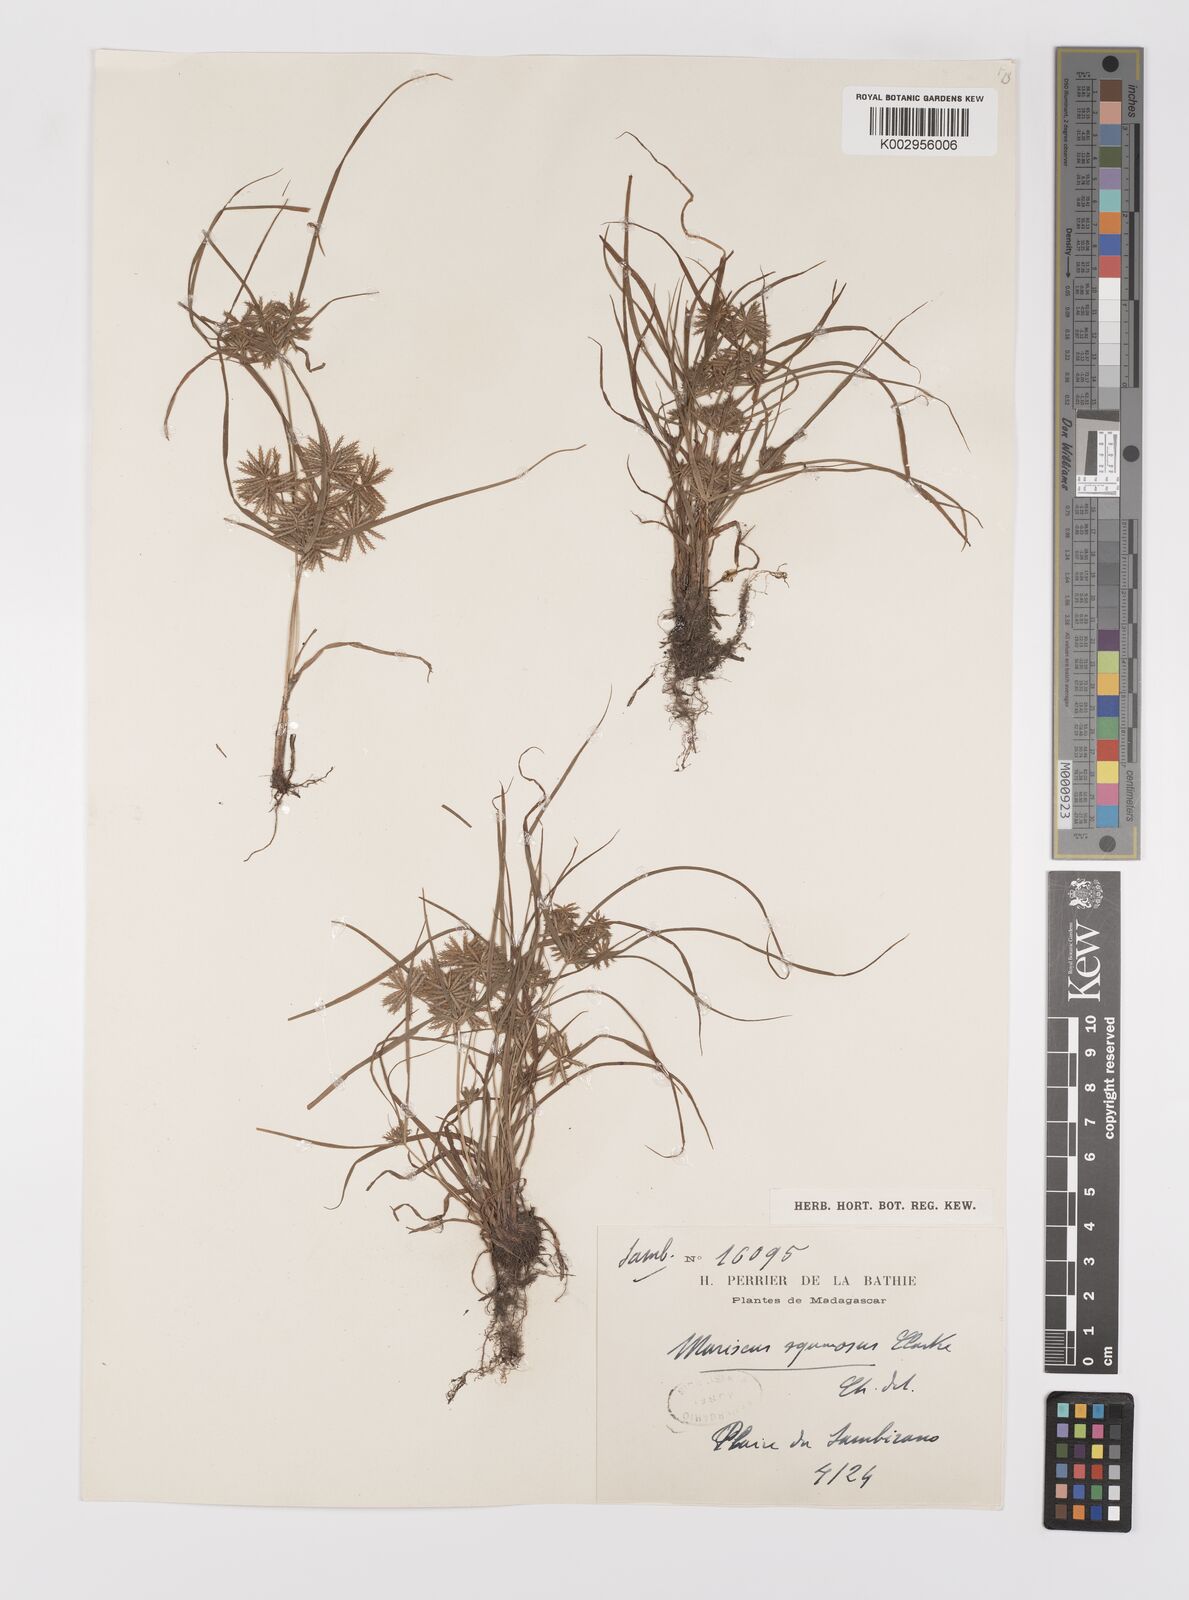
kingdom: Plantae
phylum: Tracheophyta
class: Liliopsida
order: Poales
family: Cyperaceae
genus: Cyperus
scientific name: Cyperus squarrosus
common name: Awned cyperus
